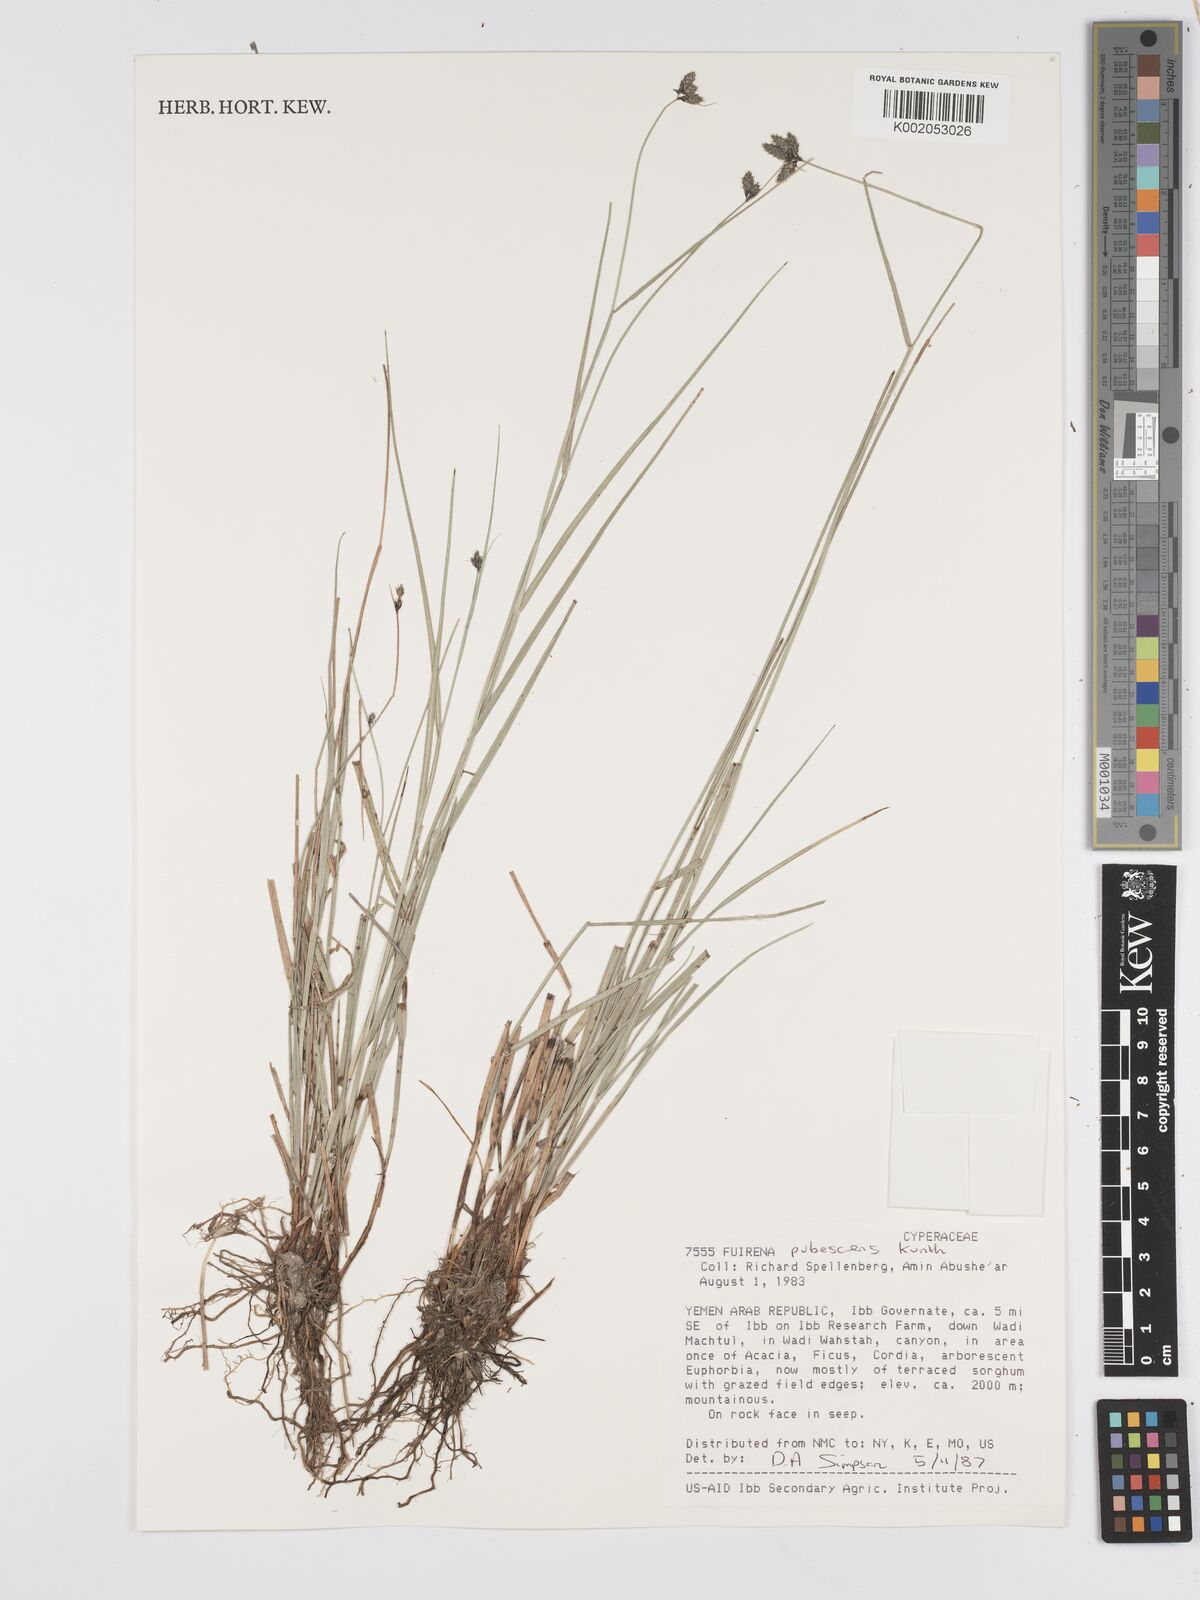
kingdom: Plantae
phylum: Tracheophyta
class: Liliopsida
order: Poales
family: Cyperaceae
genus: Fuirena
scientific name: Fuirena pubescens
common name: Hairy sedge
